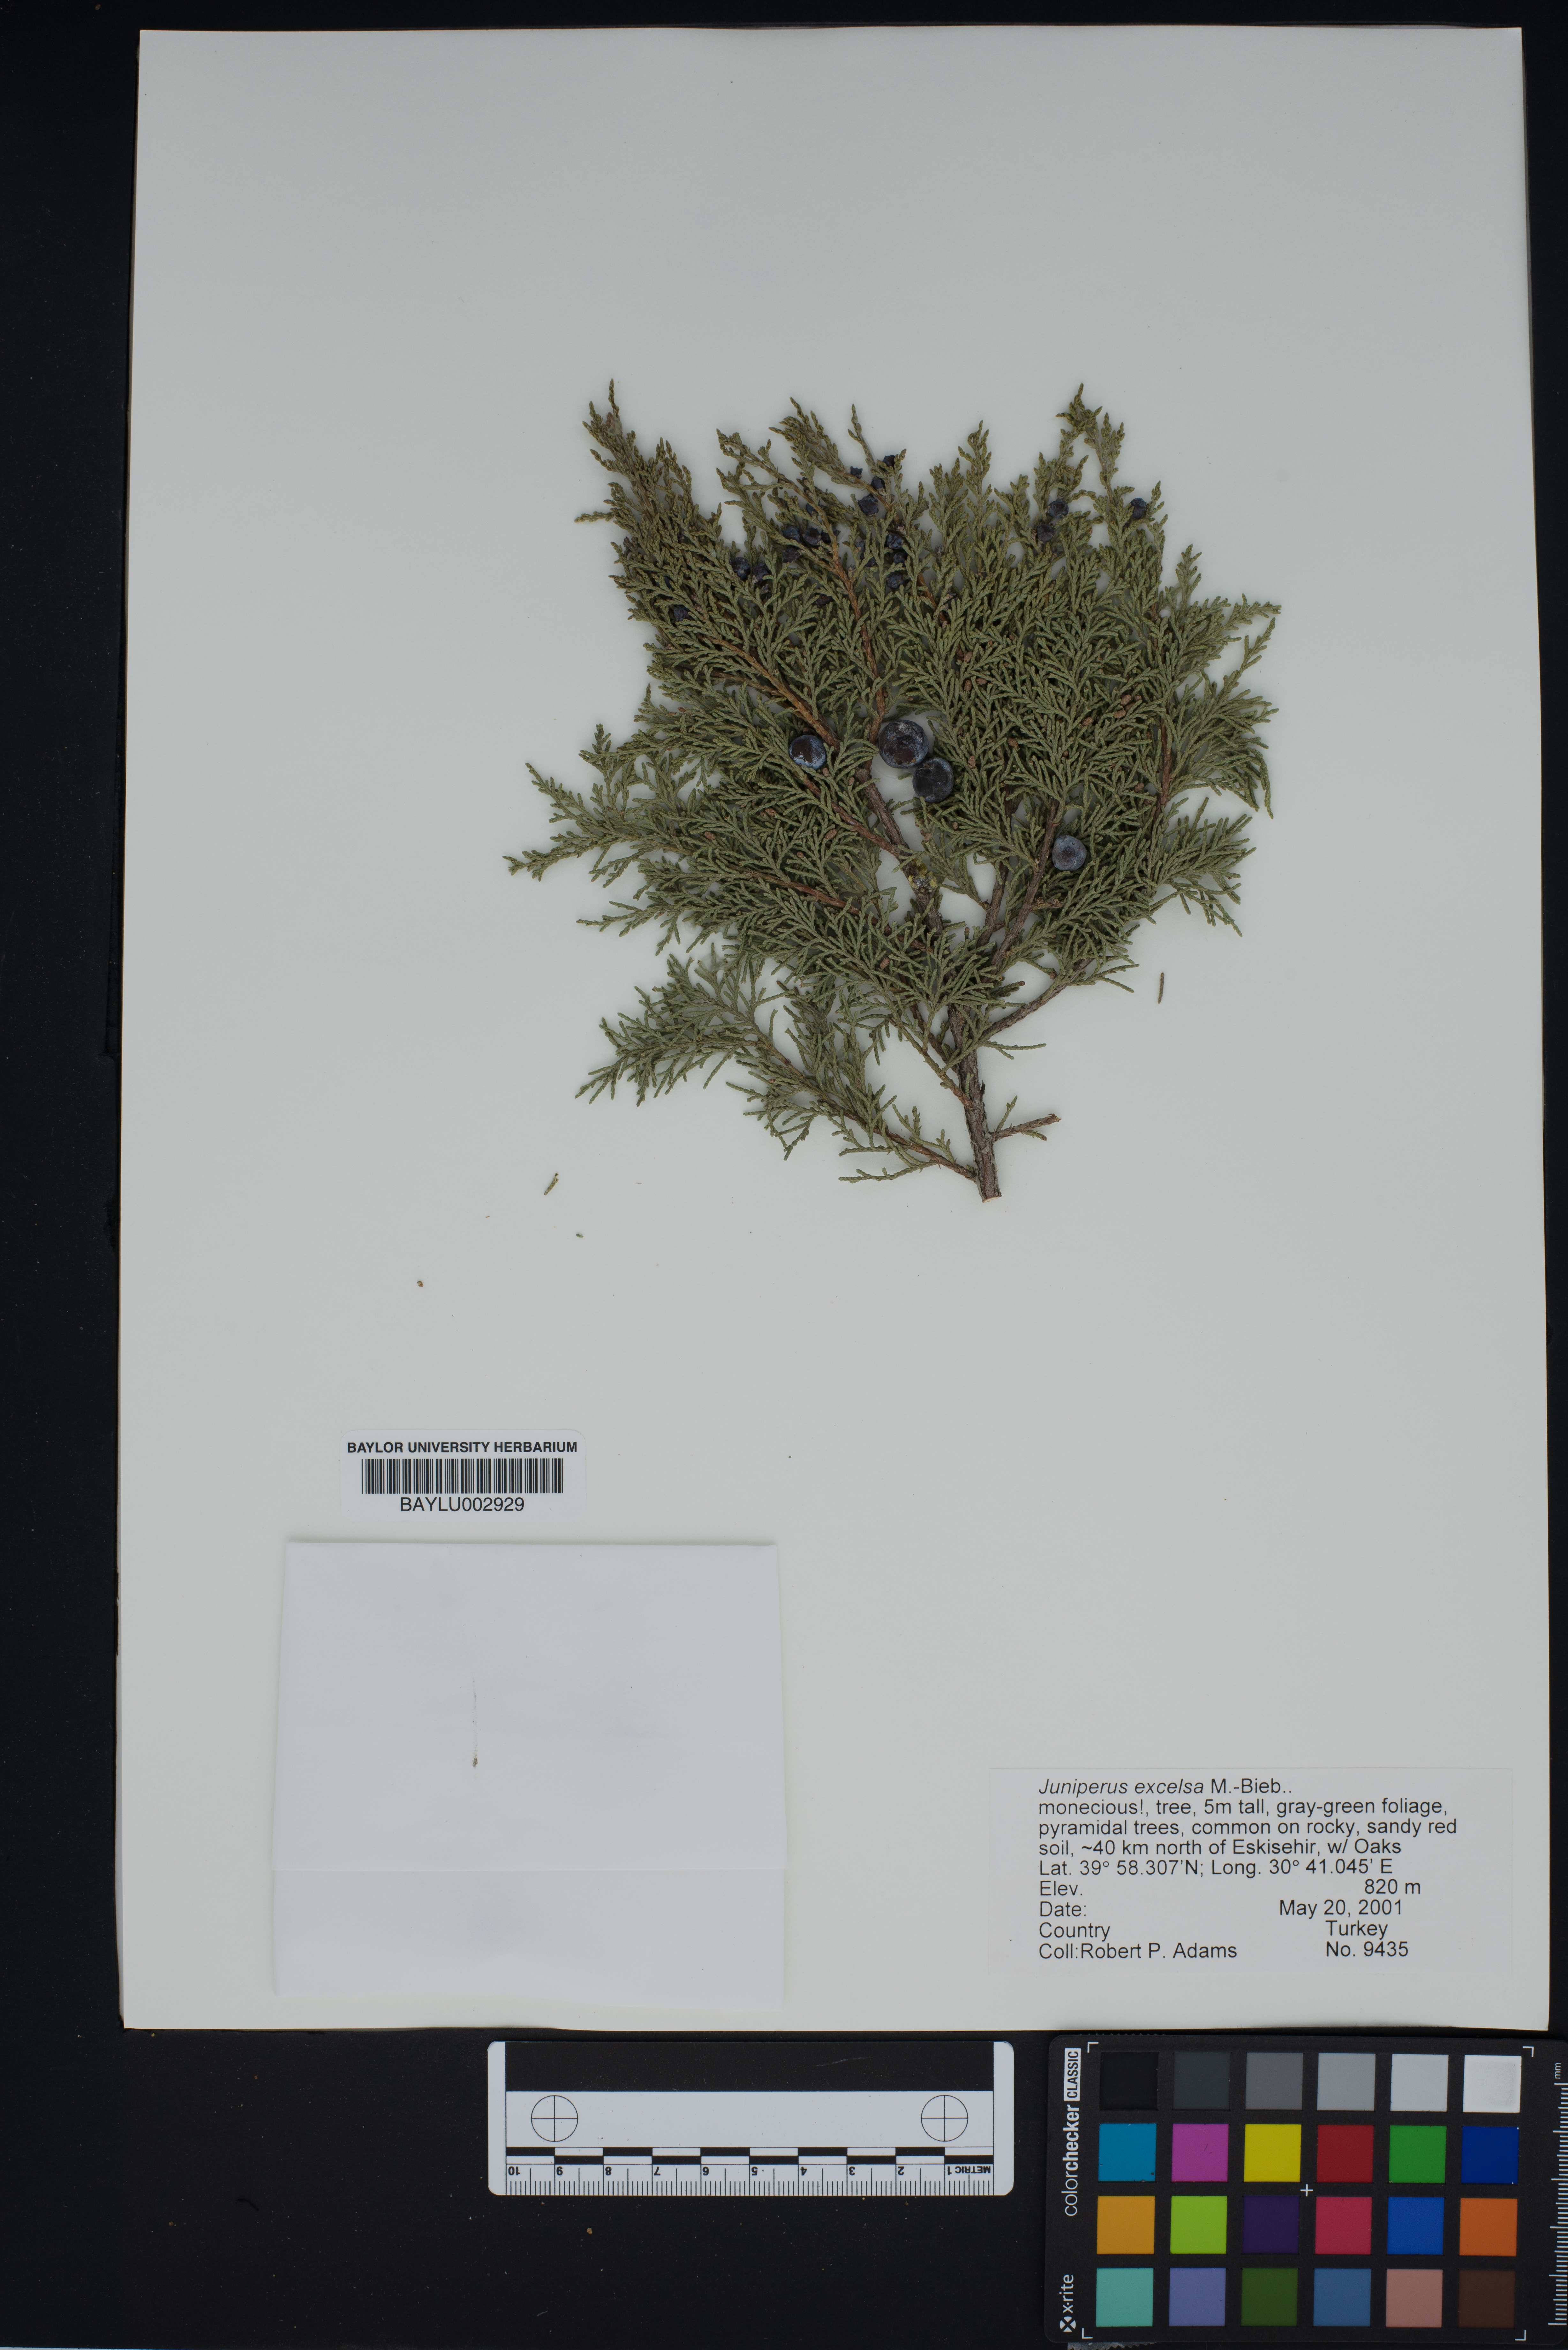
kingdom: Plantae
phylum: Tracheophyta
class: Pinopsida
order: Pinales
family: Cupressaceae
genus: Juniperus
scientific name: Juniperus excelsa
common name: Crimean juniper
